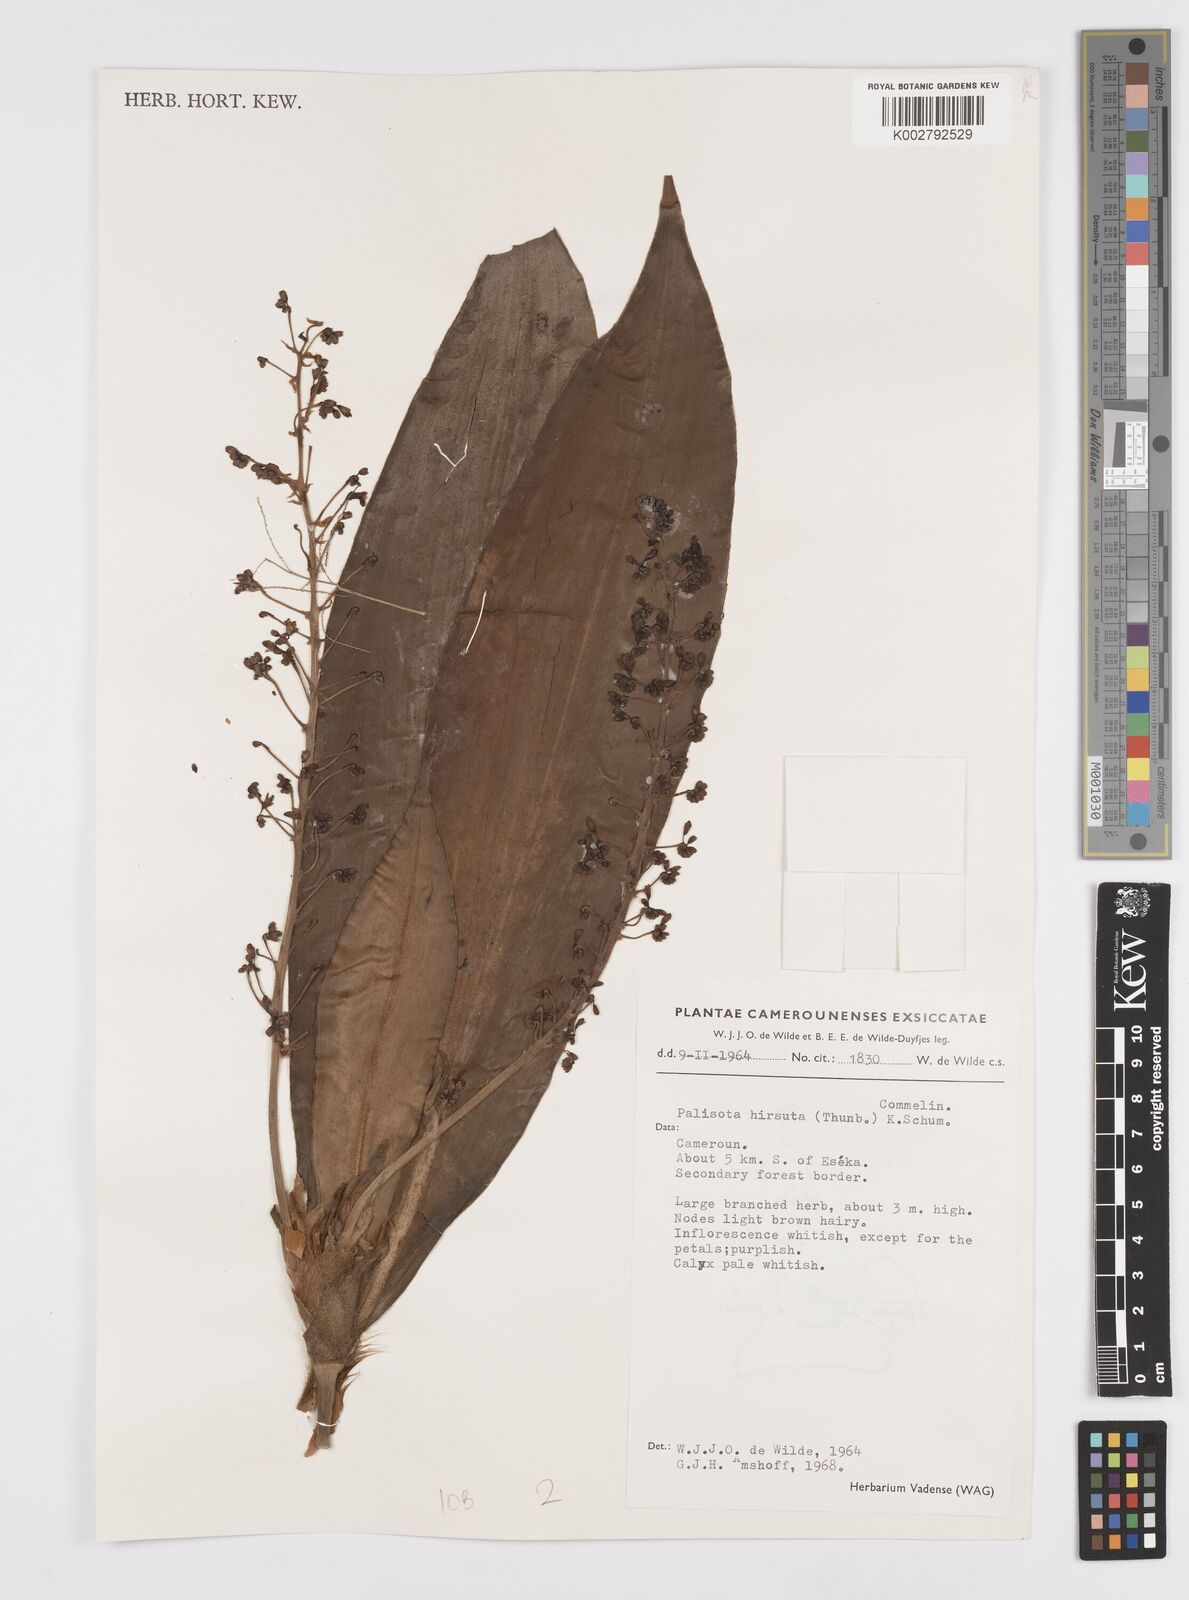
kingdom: Plantae
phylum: Tracheophyta
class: Liliopsida
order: Commelinales
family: Commelinaceae
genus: Palisota
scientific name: Palisota hirsuta
